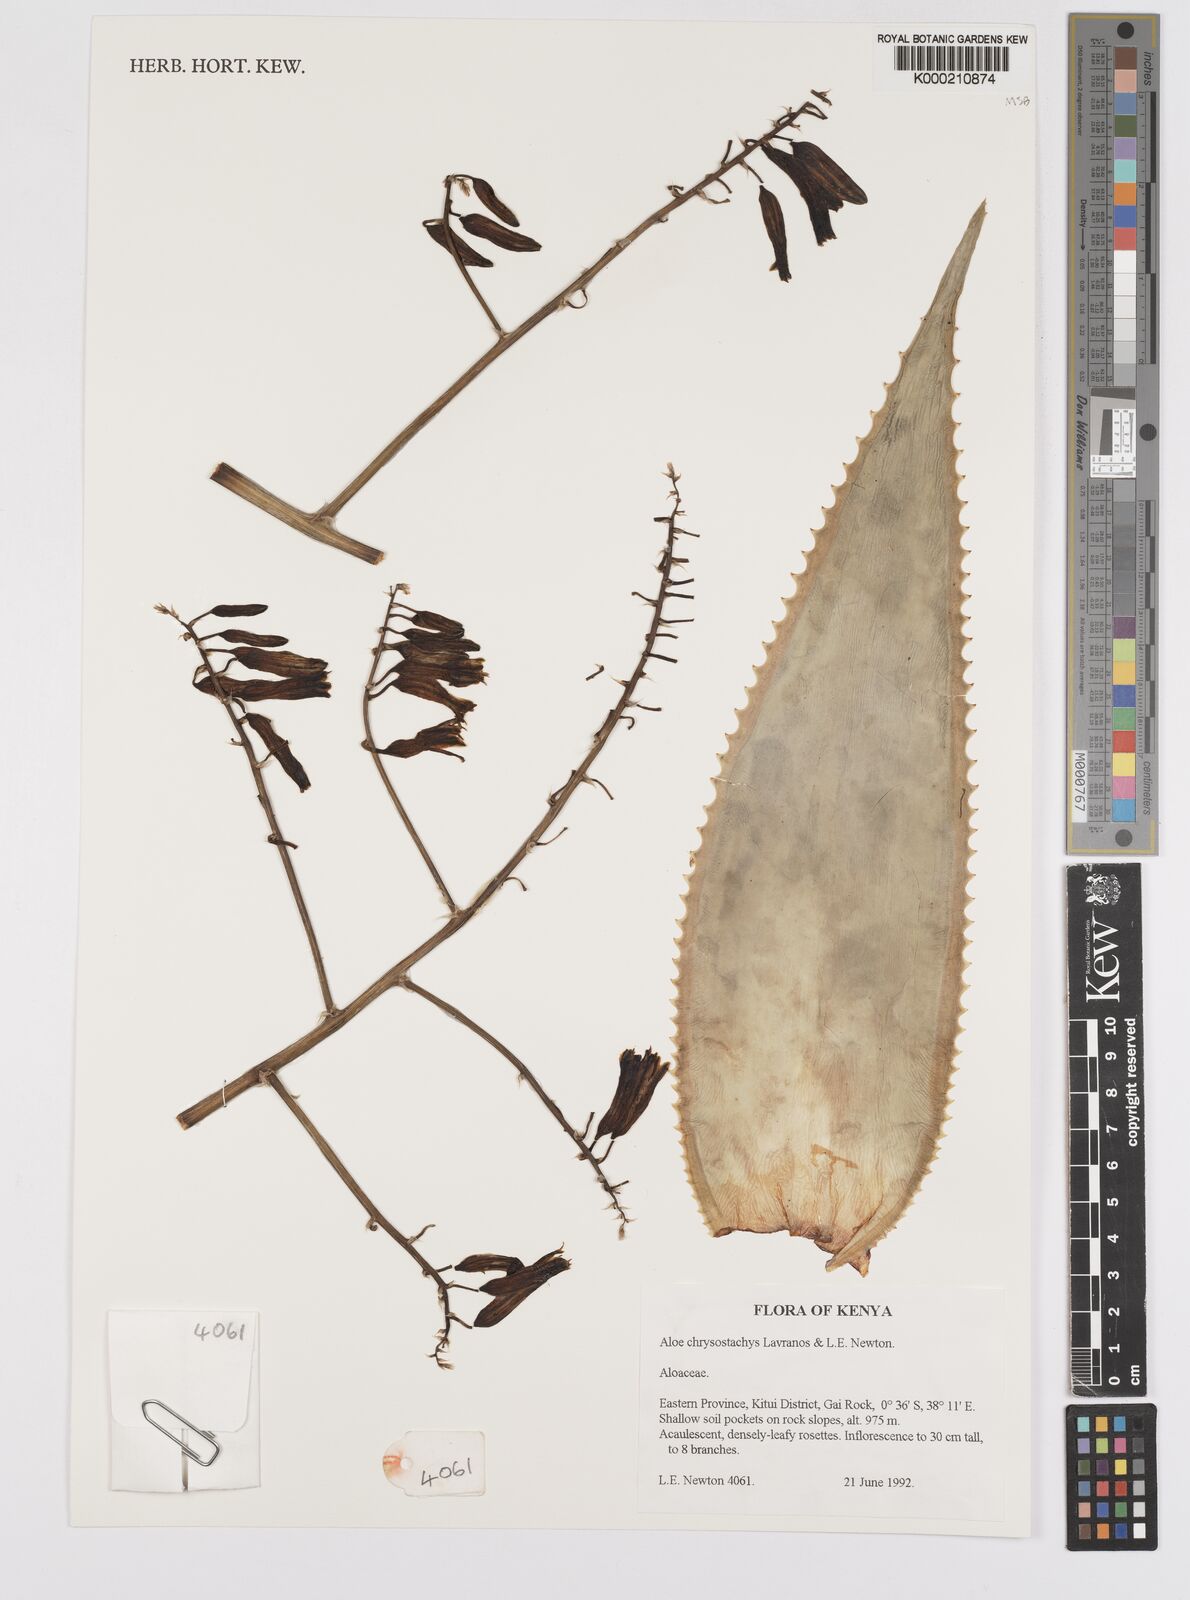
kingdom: Plantae
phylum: Tracheophyta
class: Liliopsida
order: Asparagales
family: Asphodelaceae
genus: Aloe
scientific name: Aloe chrysostachys
